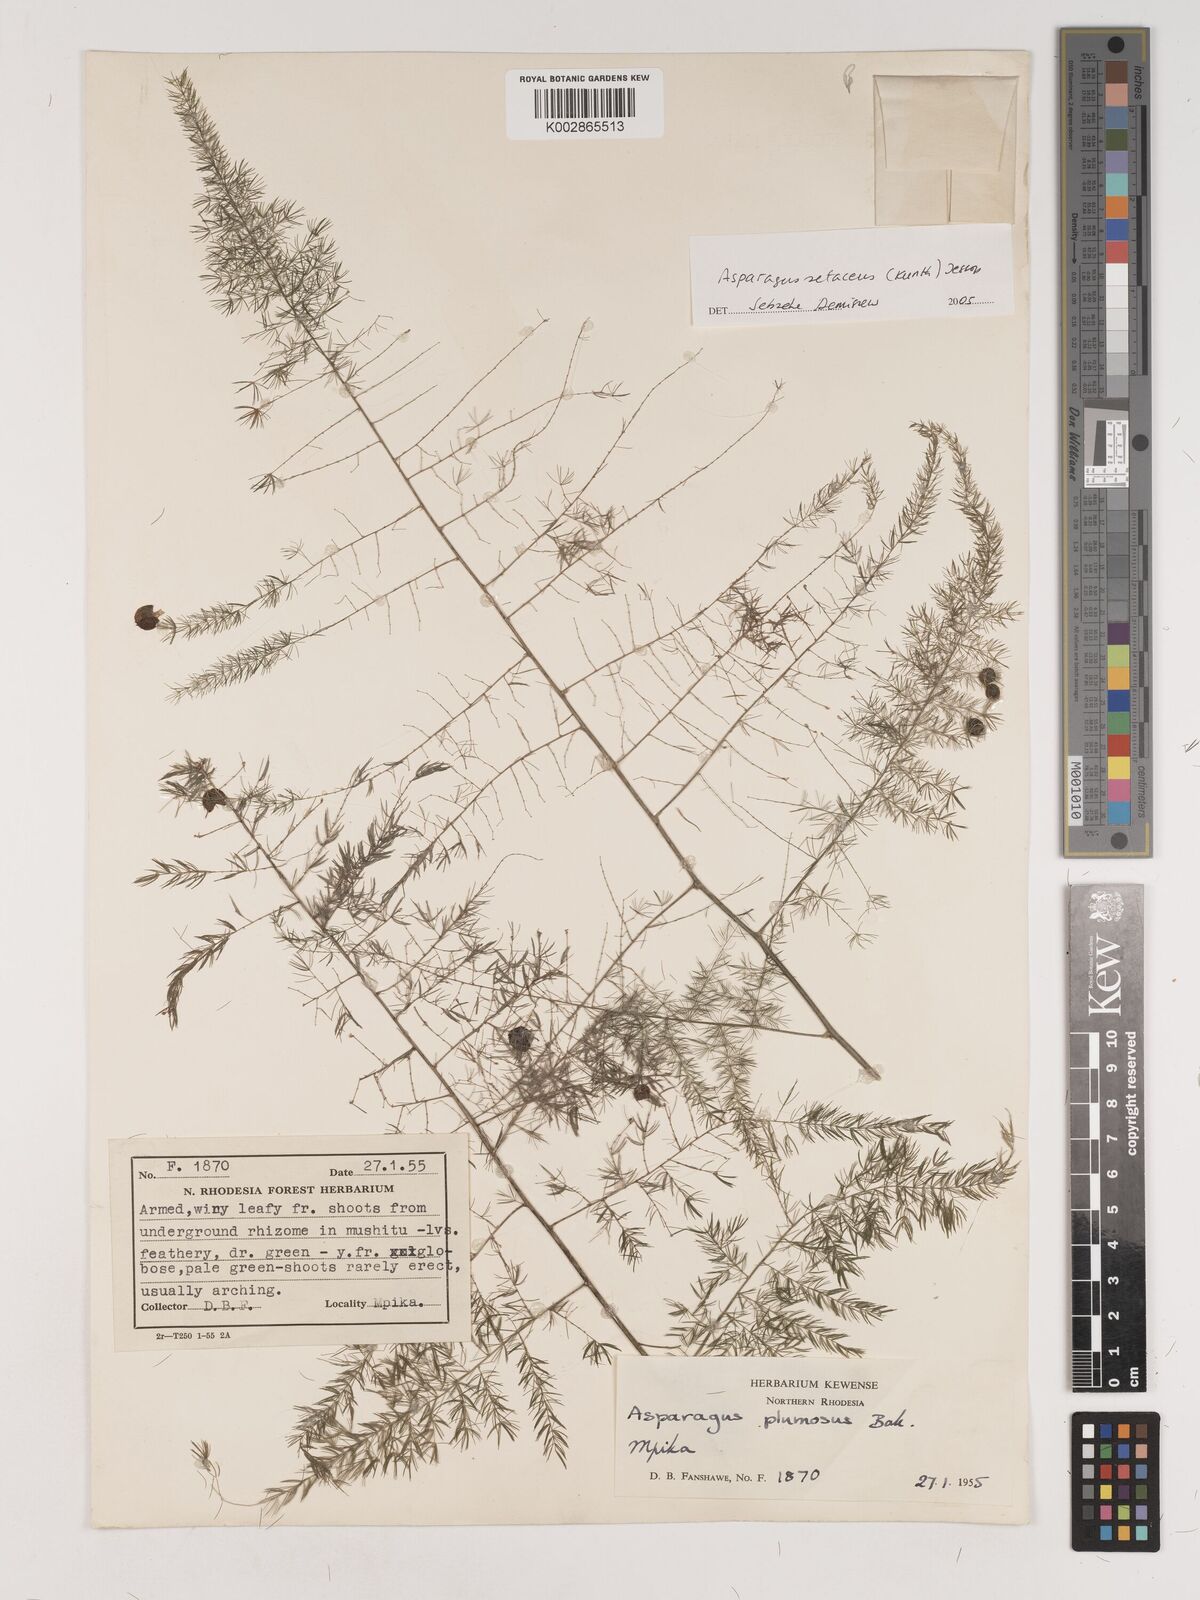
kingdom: Plantae
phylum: Tracheophyta
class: Liliopsida
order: Asparagales
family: Asparagaceae
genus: Asparagus
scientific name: Asparagus setaceus
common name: Common asparagus fern
